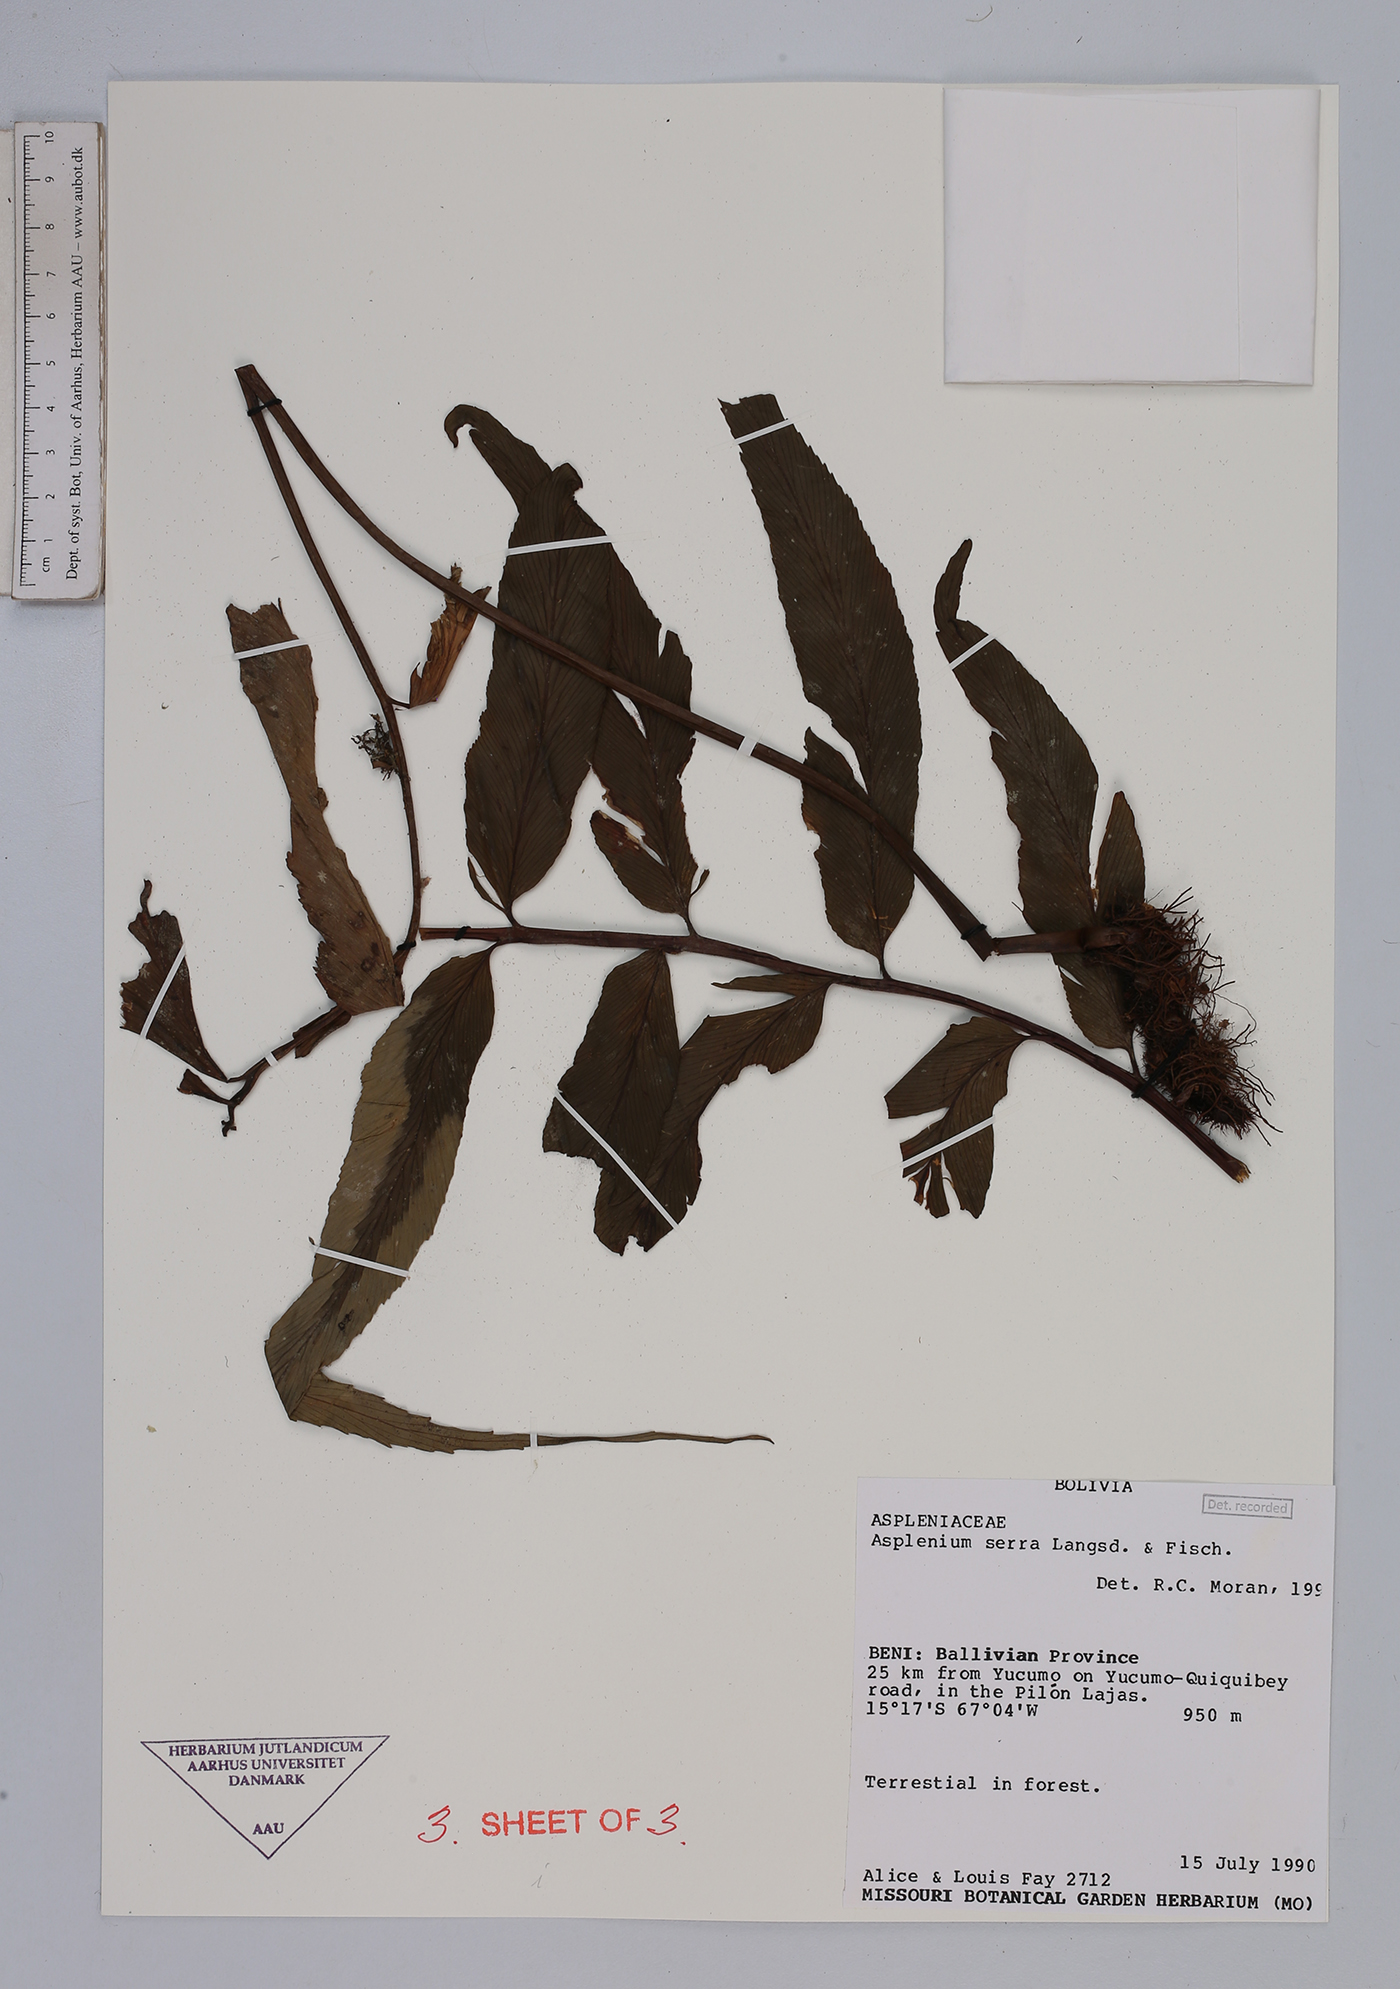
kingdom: Plantae
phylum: Tracheophyta
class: Polypodiopsida
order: Polypodiales
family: Aspleniaceae
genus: Asplenium
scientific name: Asplenium serra
